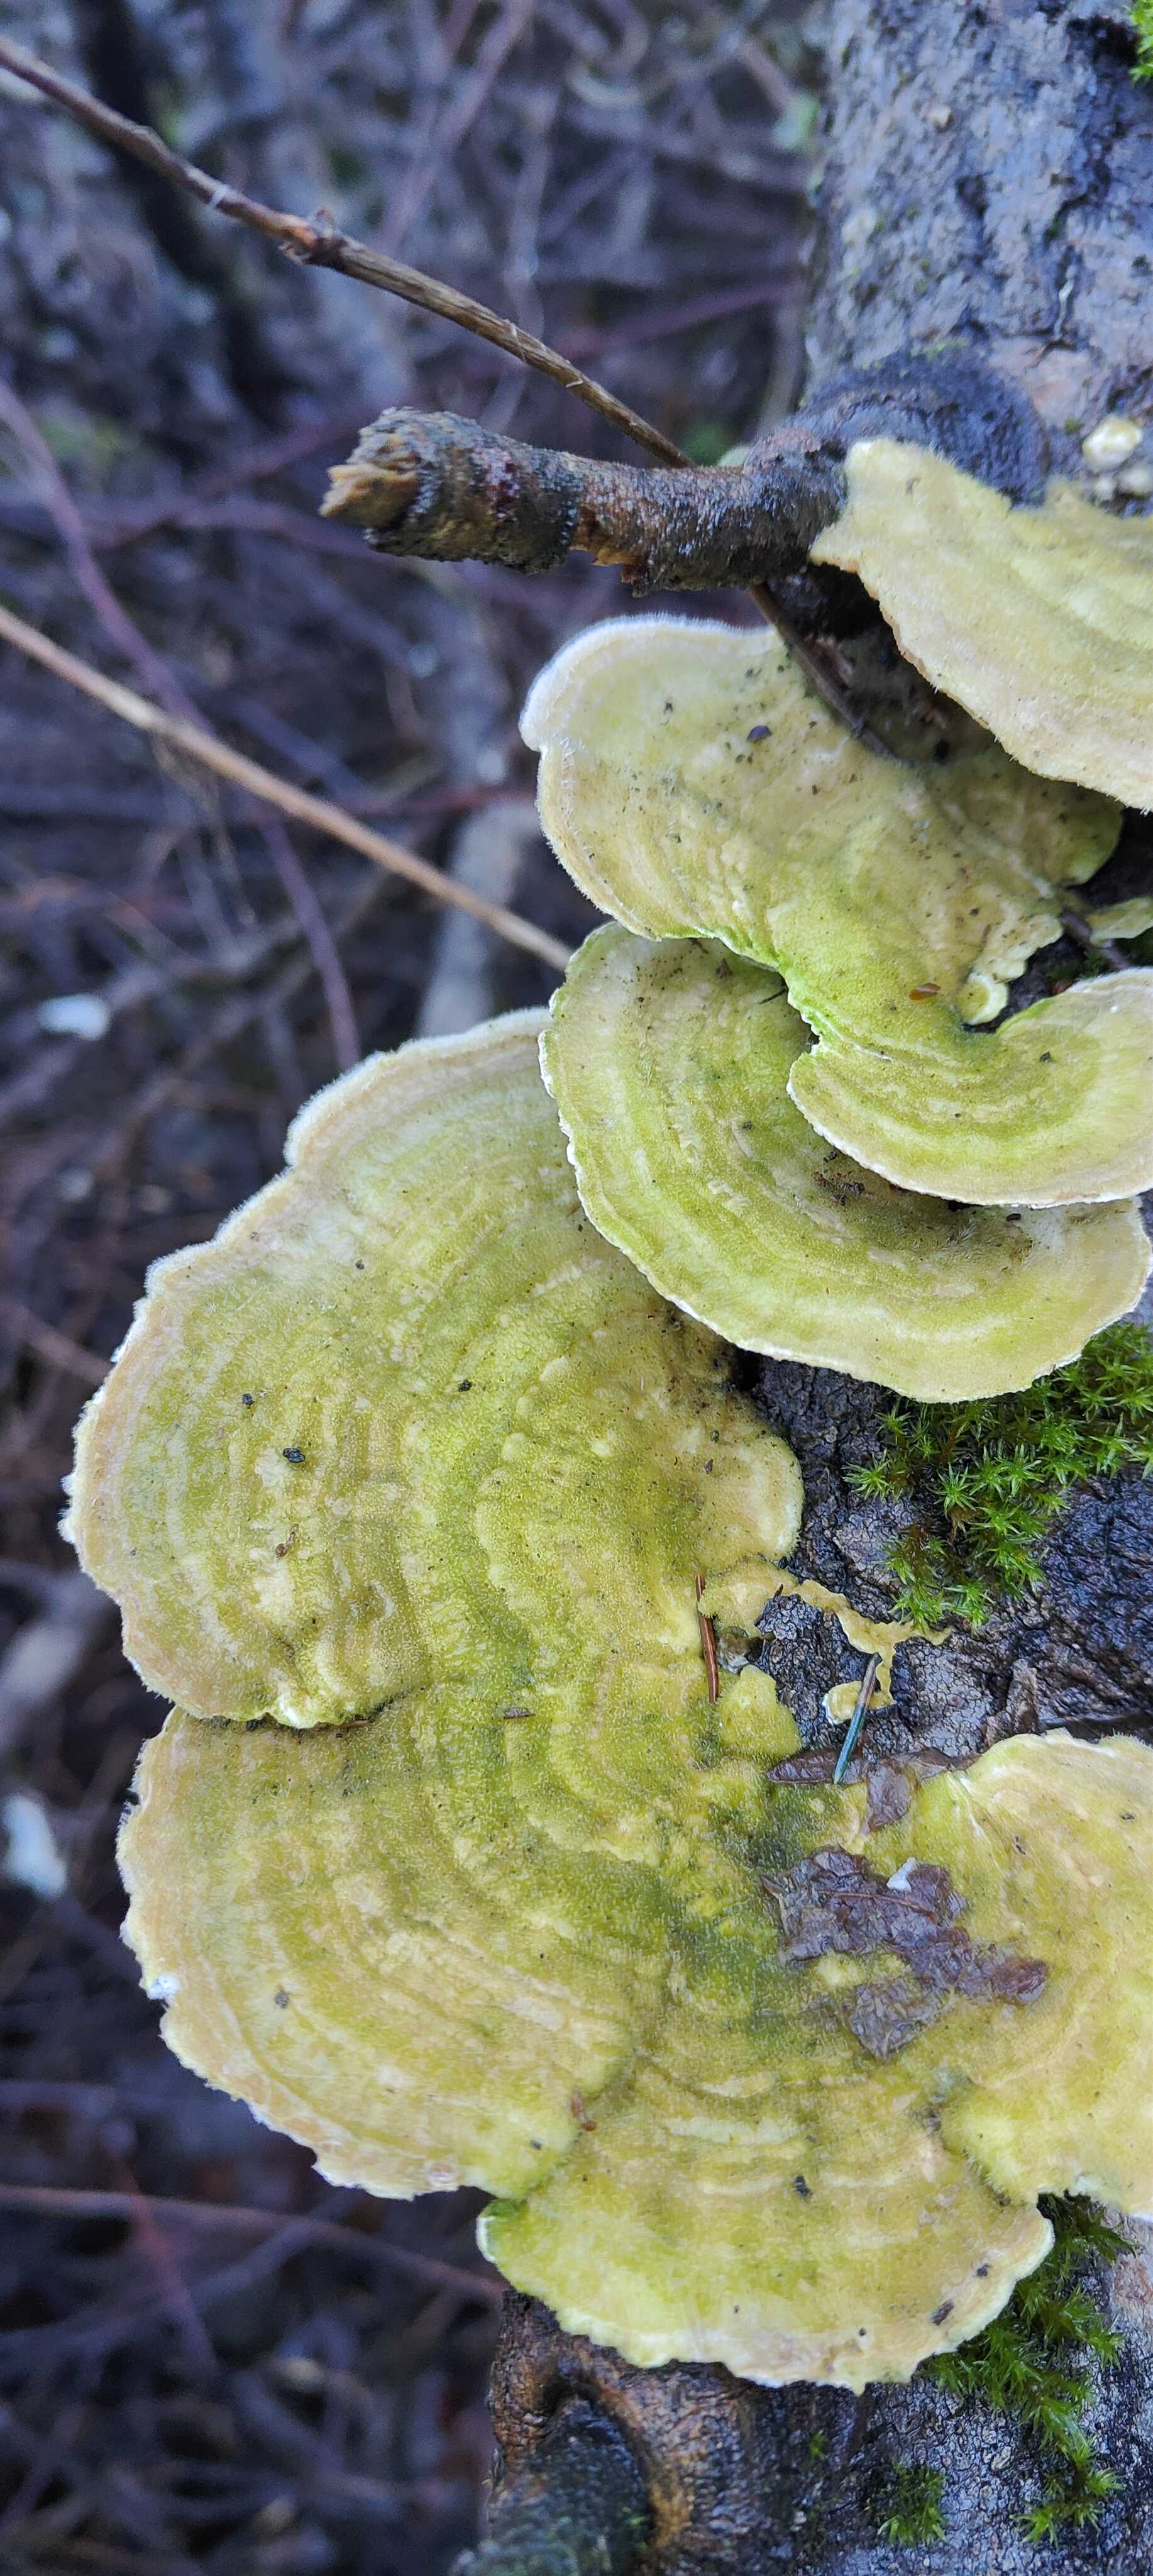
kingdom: Fungi
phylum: Basidiomycota
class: Agaricomycetes
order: Polyporales
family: Polyporaceae
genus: Trametes
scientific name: Trametes hirsuta
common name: håret læderporesvamp
